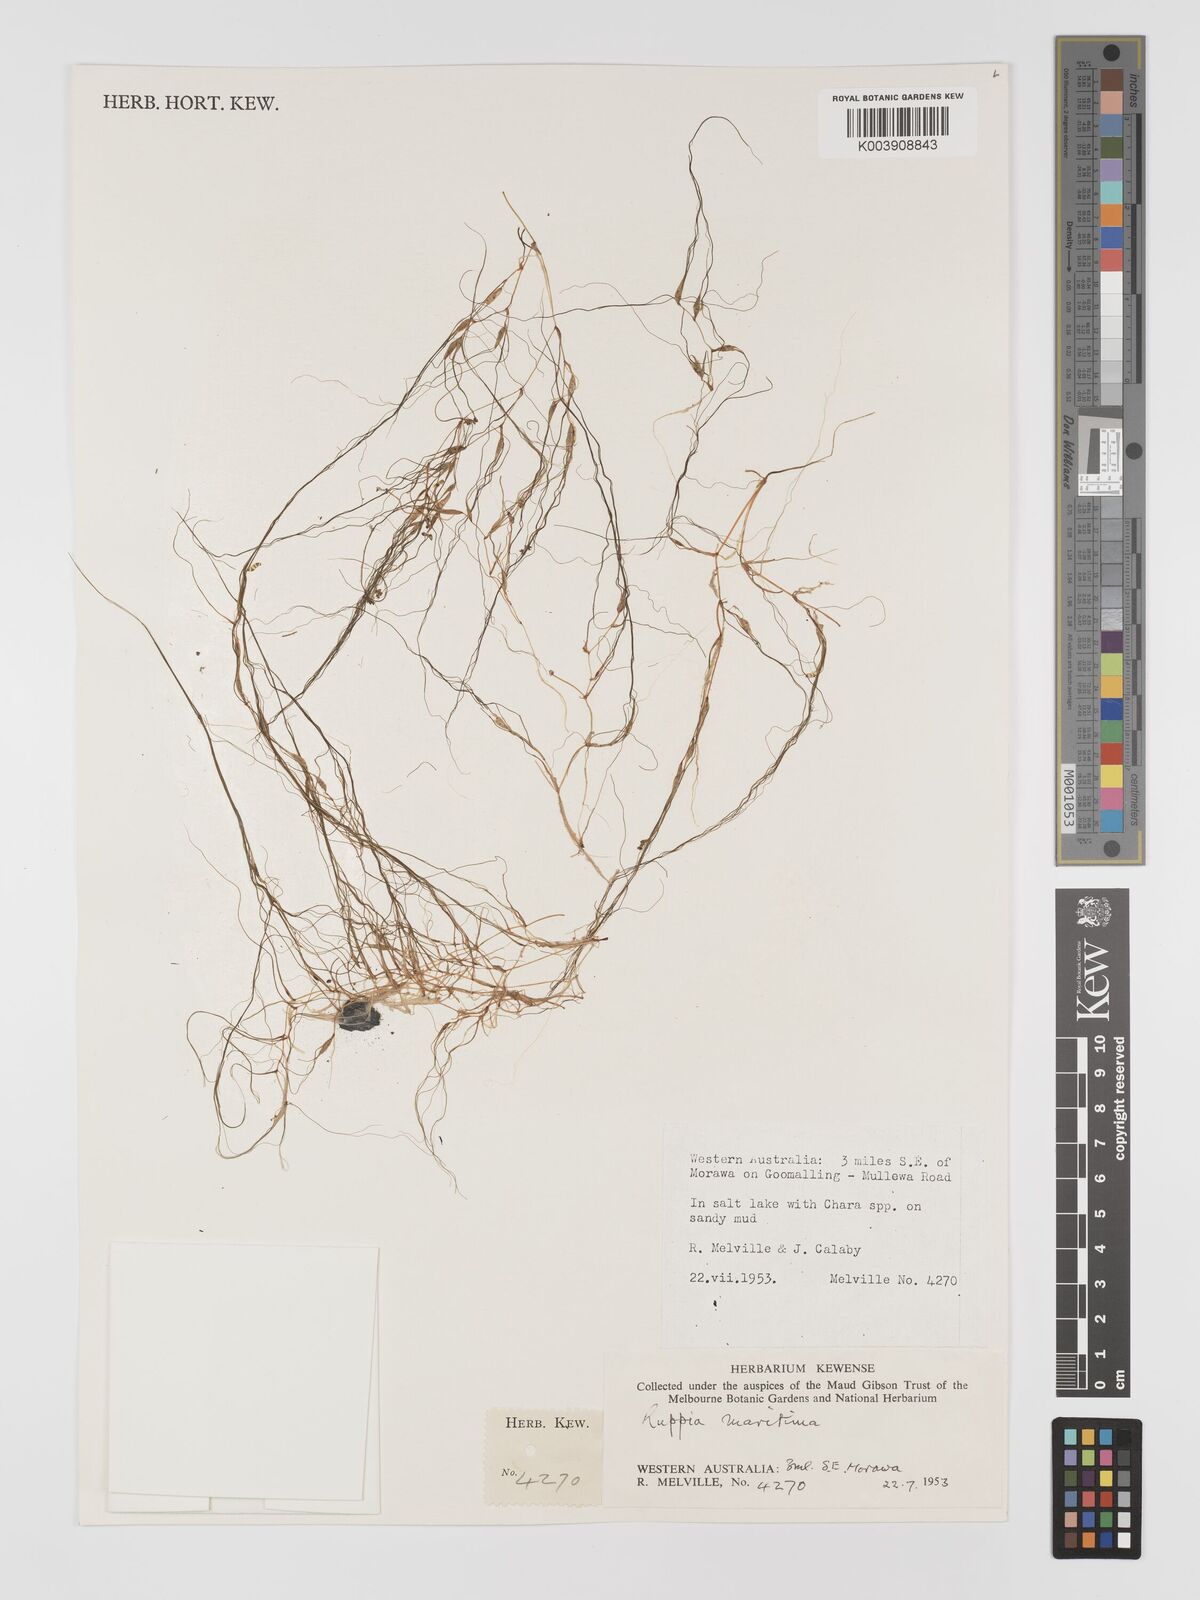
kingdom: Plantae
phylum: Tracheophyta
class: Liliopsida
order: Alismatales
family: Ruppiaceae
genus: Ruppia
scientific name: Ruppia maritima
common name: Beaked tasselweed
